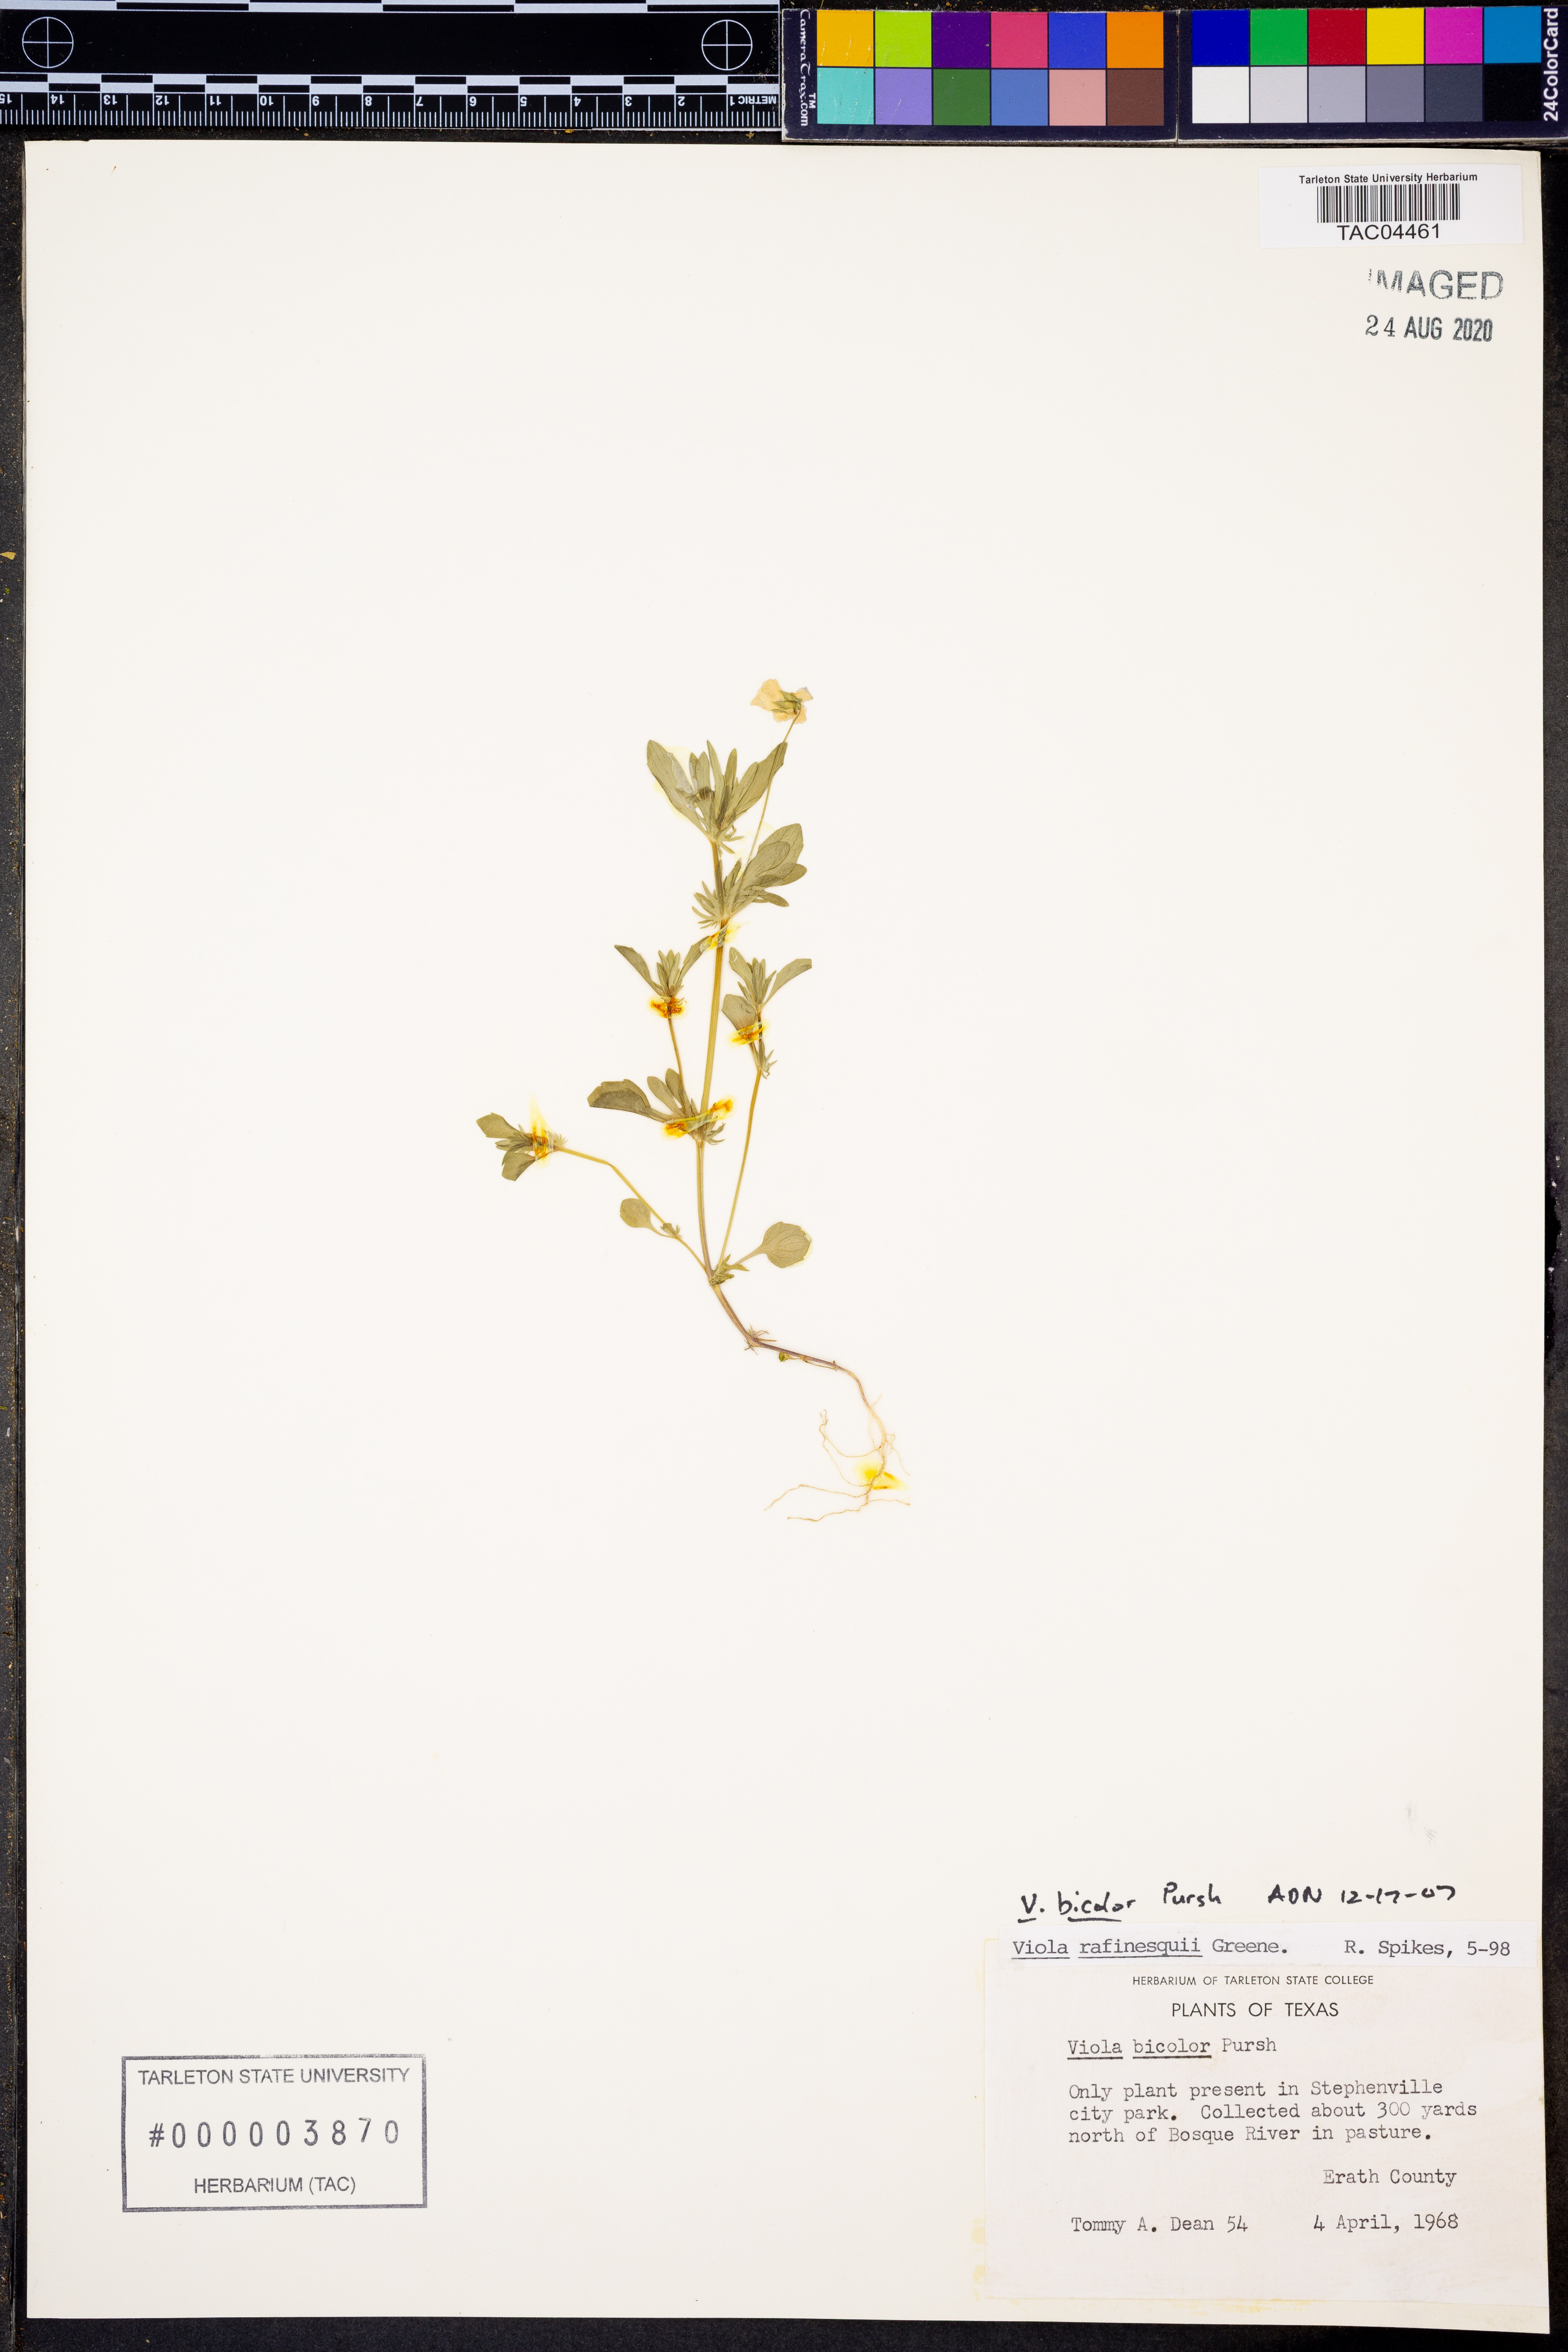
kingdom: Plantae
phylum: Tracheophyta
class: Magnoliopsida
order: Malpighiales
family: Violaceae
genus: Viola
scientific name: Viola rafinesquei
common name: American field pansy
